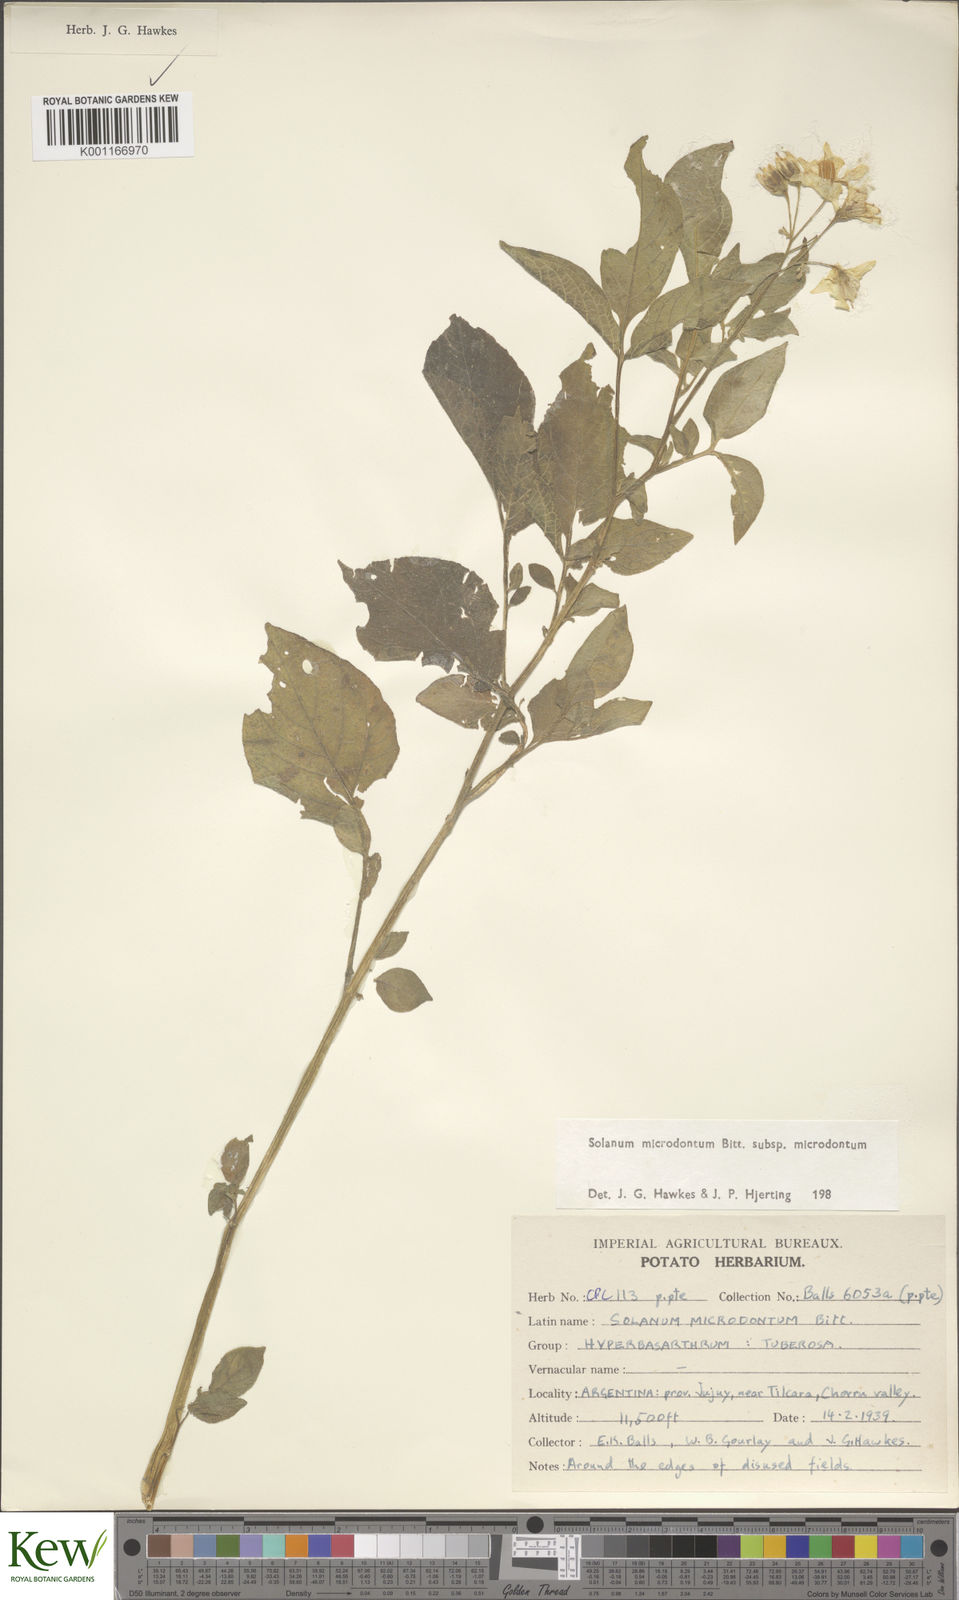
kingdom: Plantae
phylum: Tracheophyta
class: Magnoliopsida
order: Solanales
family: Solanaceae
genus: Solanum
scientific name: Solanum microdontum
